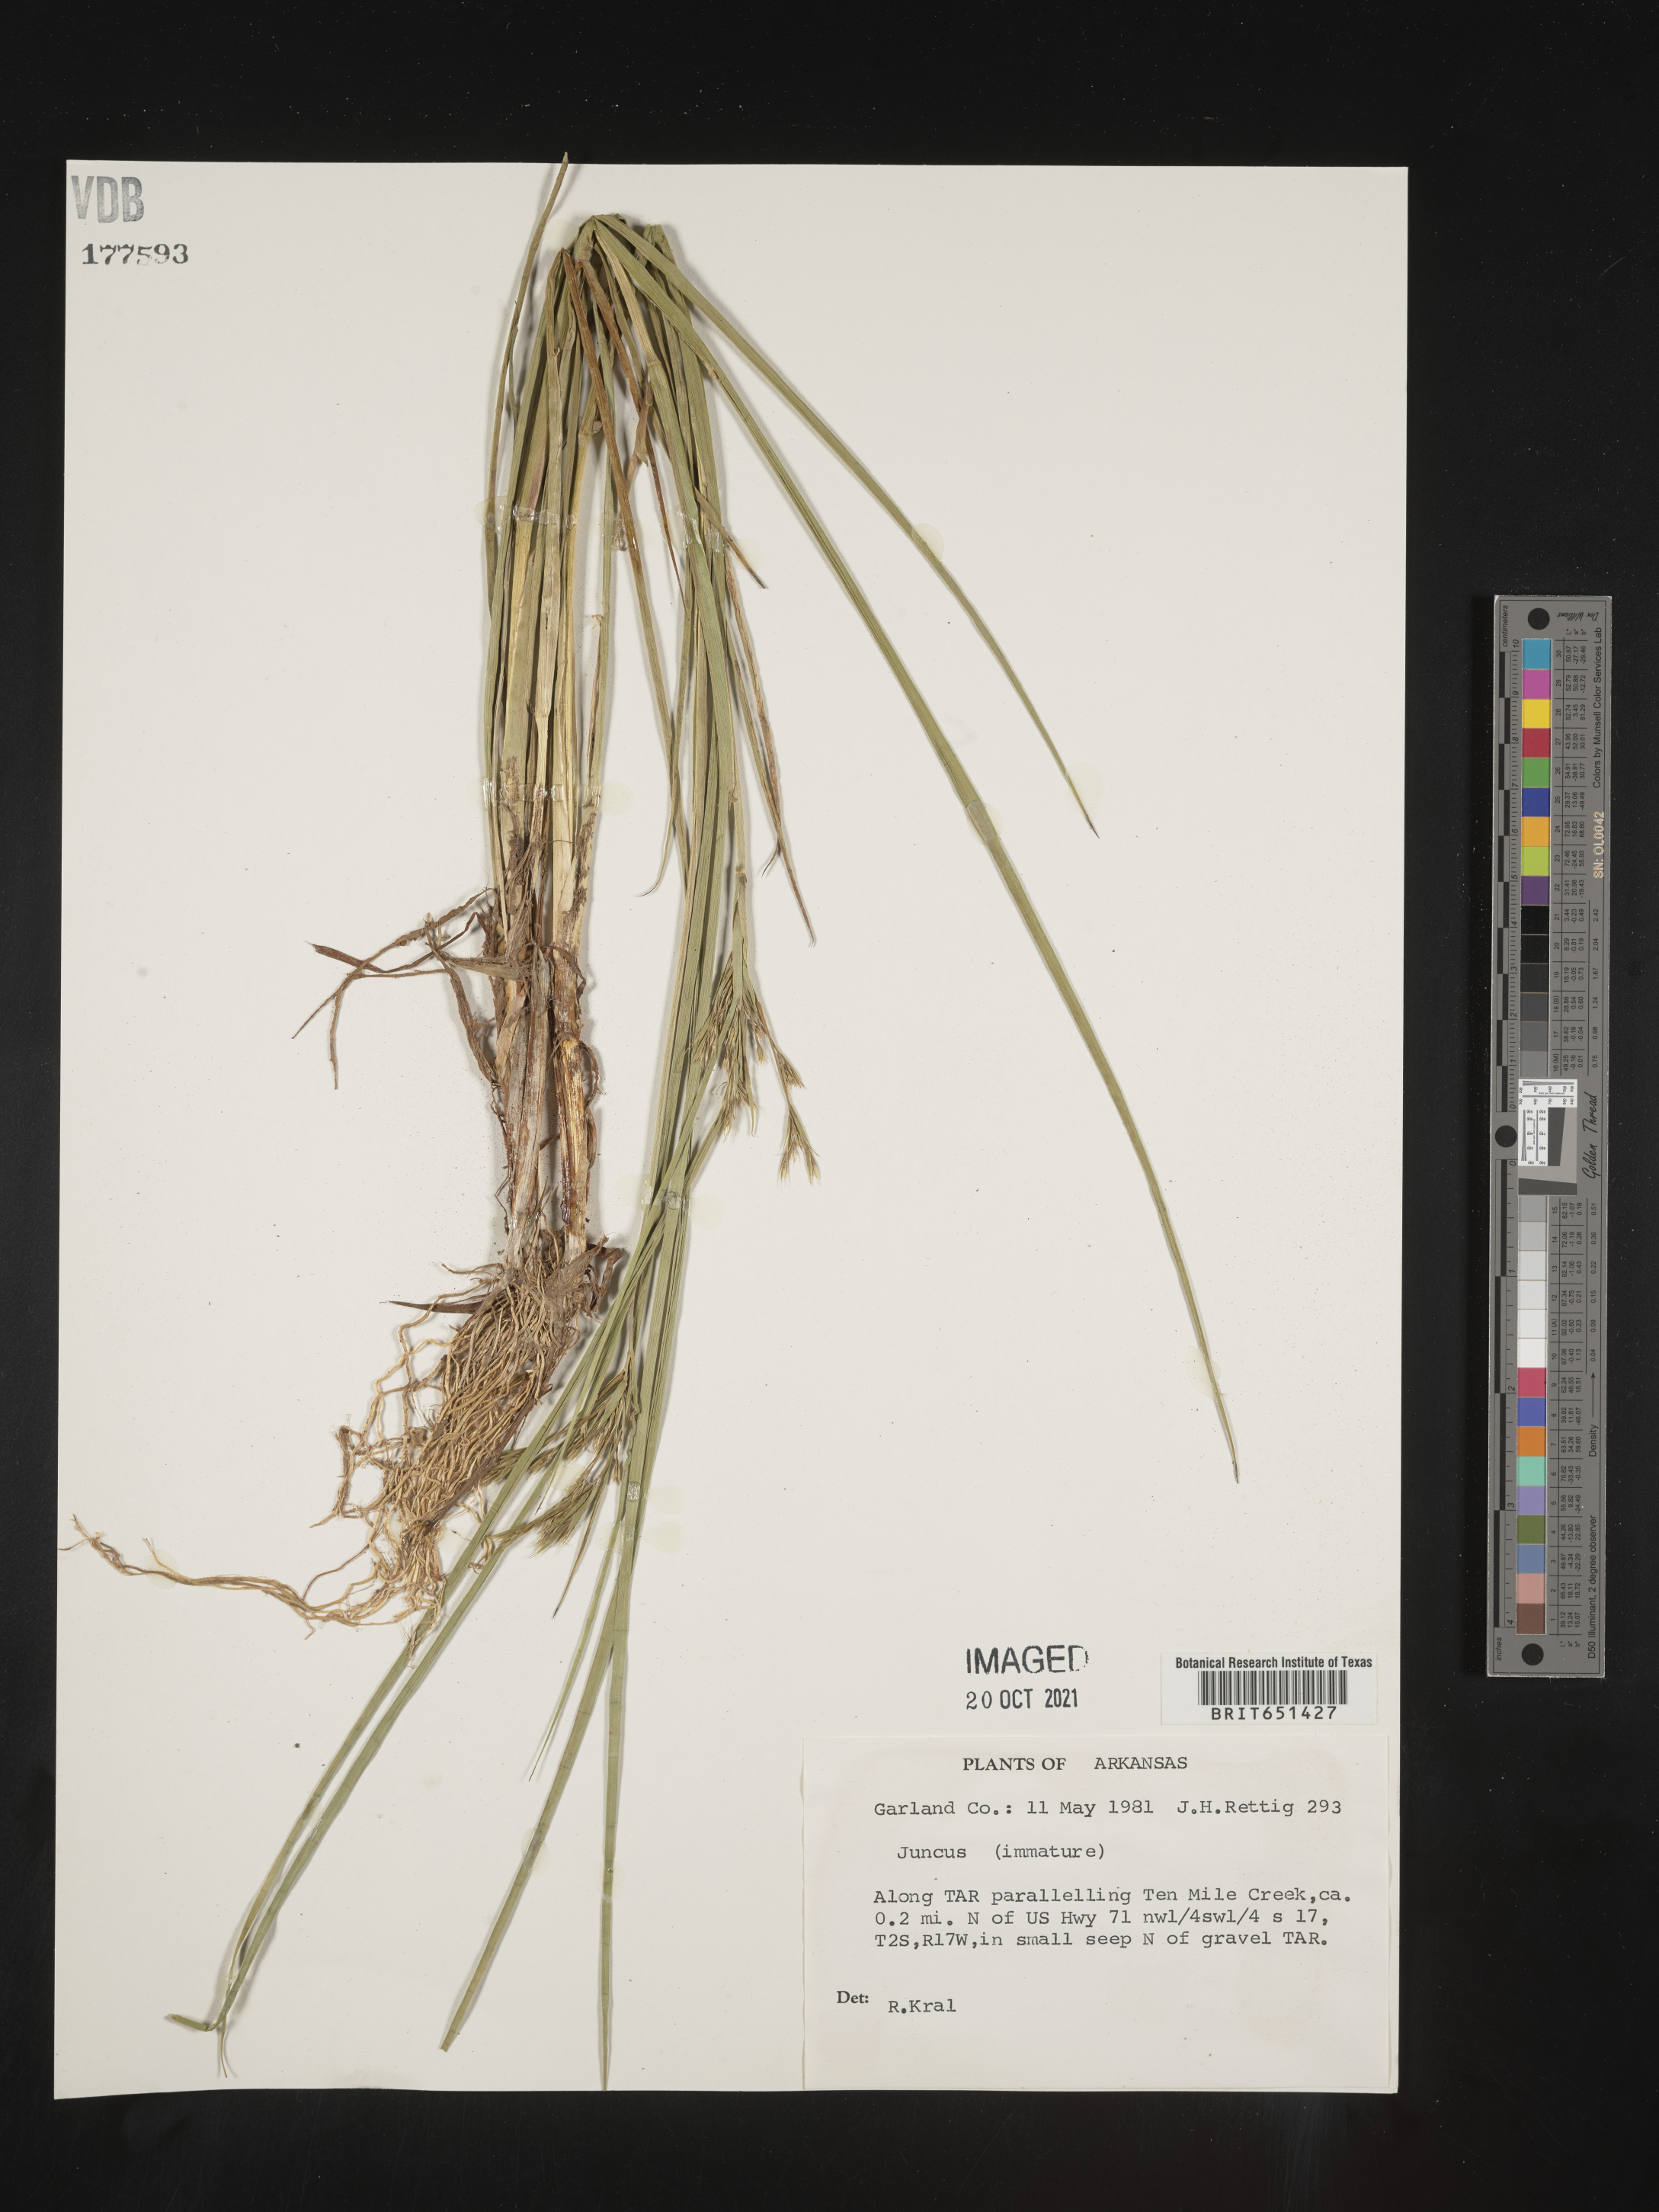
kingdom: Plantae
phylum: Tracheophyta
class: Liliopsida
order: Poales
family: Juncaceae
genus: Juncus
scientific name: Juncus
